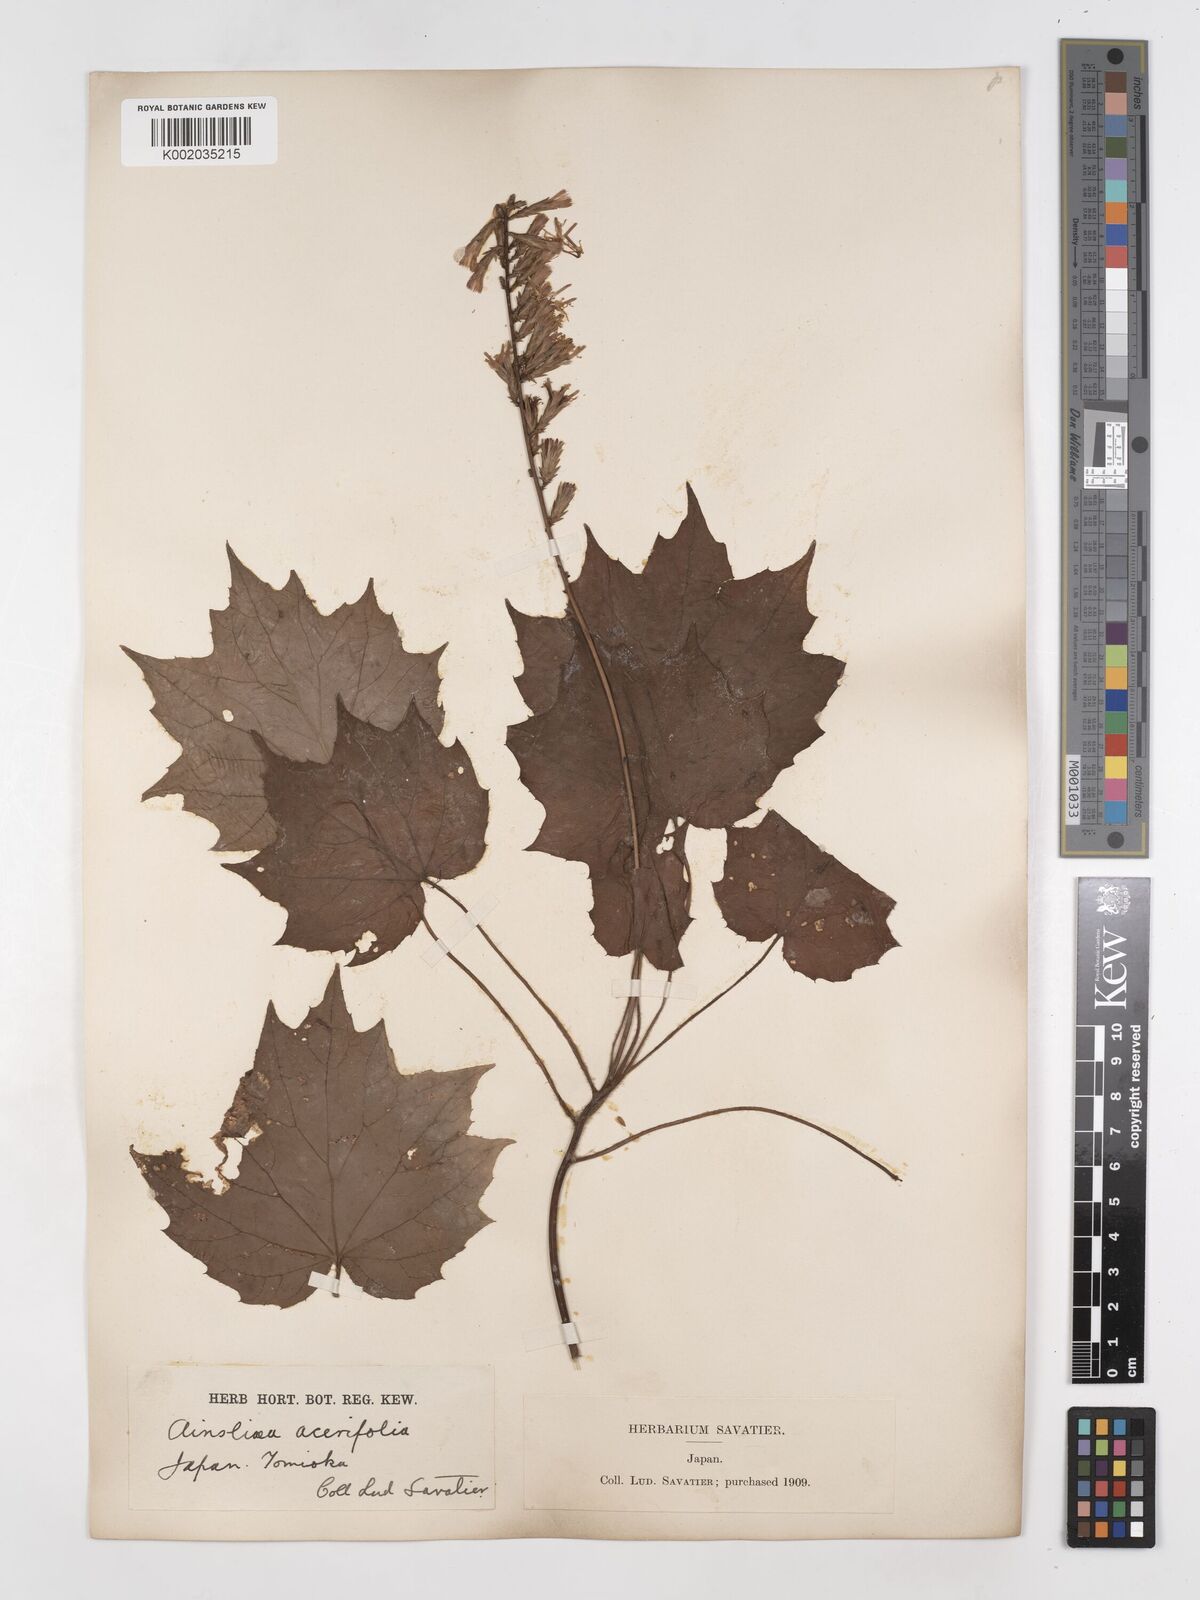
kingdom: Plantae
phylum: Tracheophyta
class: Magnoliopsida
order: Asterales
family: Asteraceae
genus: Ainsliaea
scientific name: Ainsliaea acerifolia
